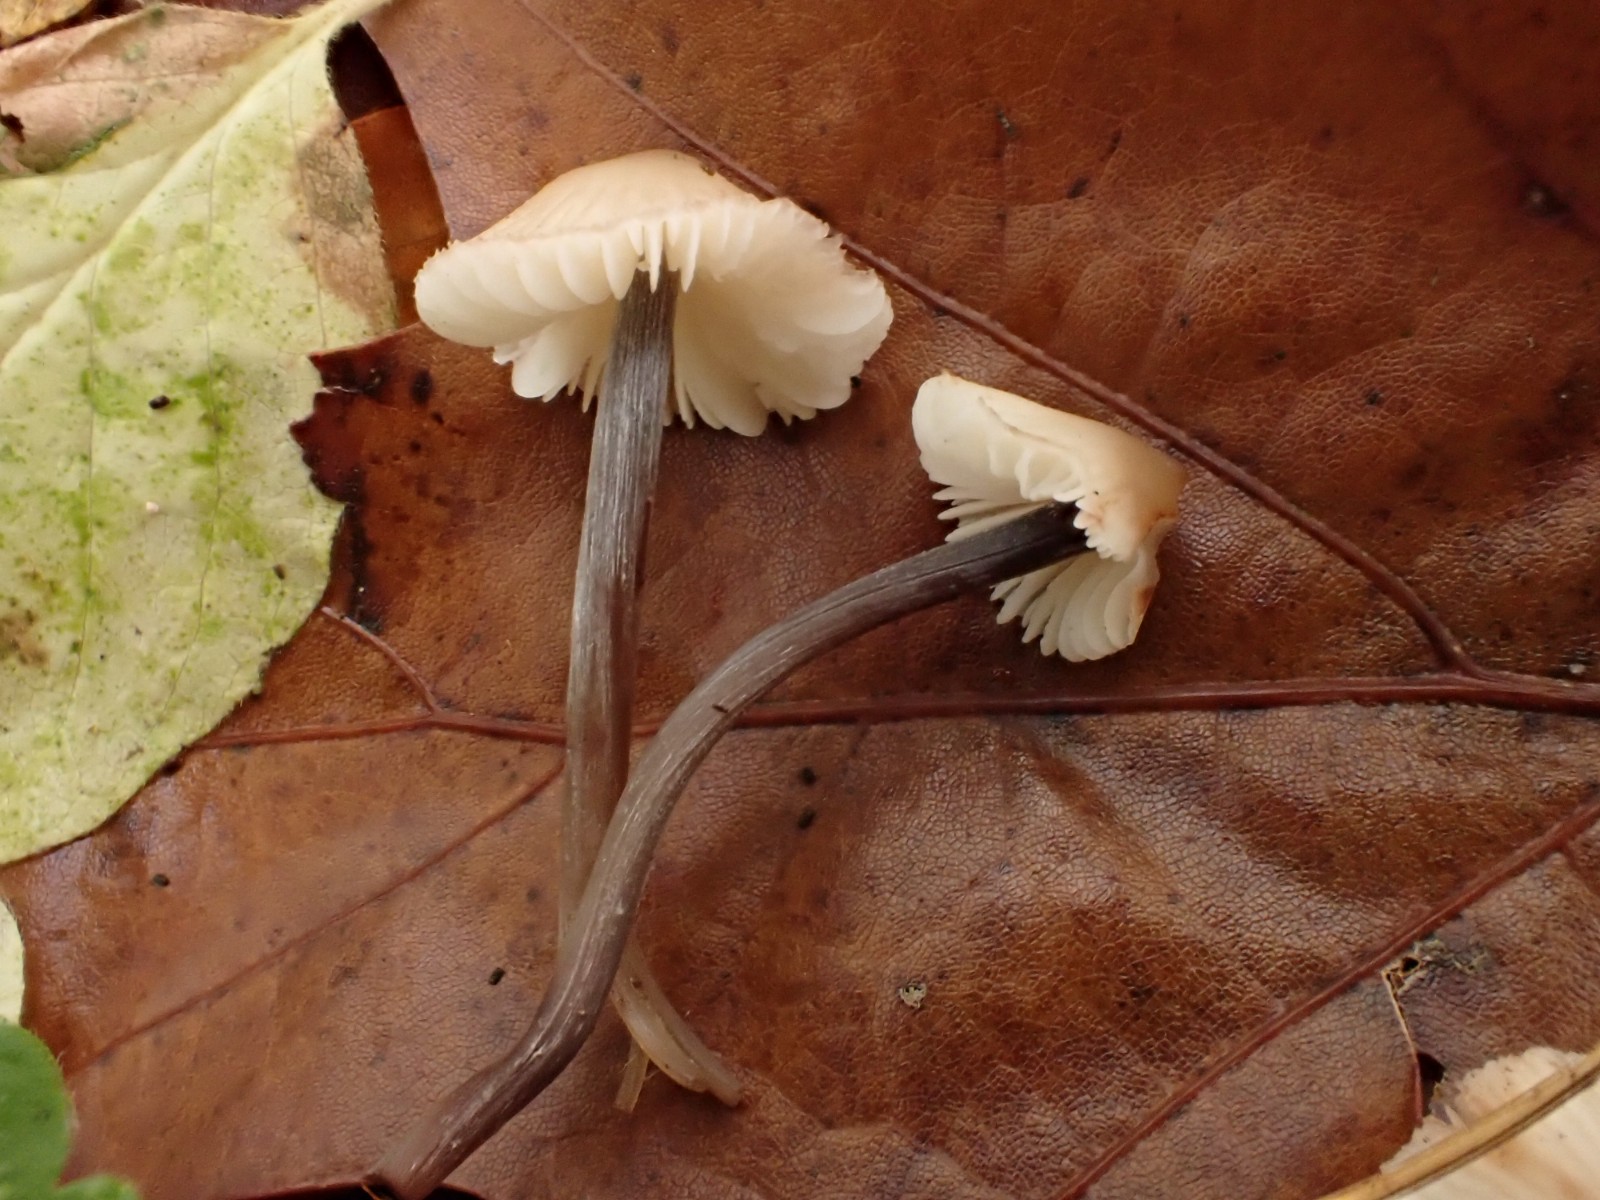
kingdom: Fungi
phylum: Basidiomycota
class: Agaricomycetes
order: Agaricales
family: Mycenaceae
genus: Mycena
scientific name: Mycena polygramma
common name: mangestribet huesvamp
